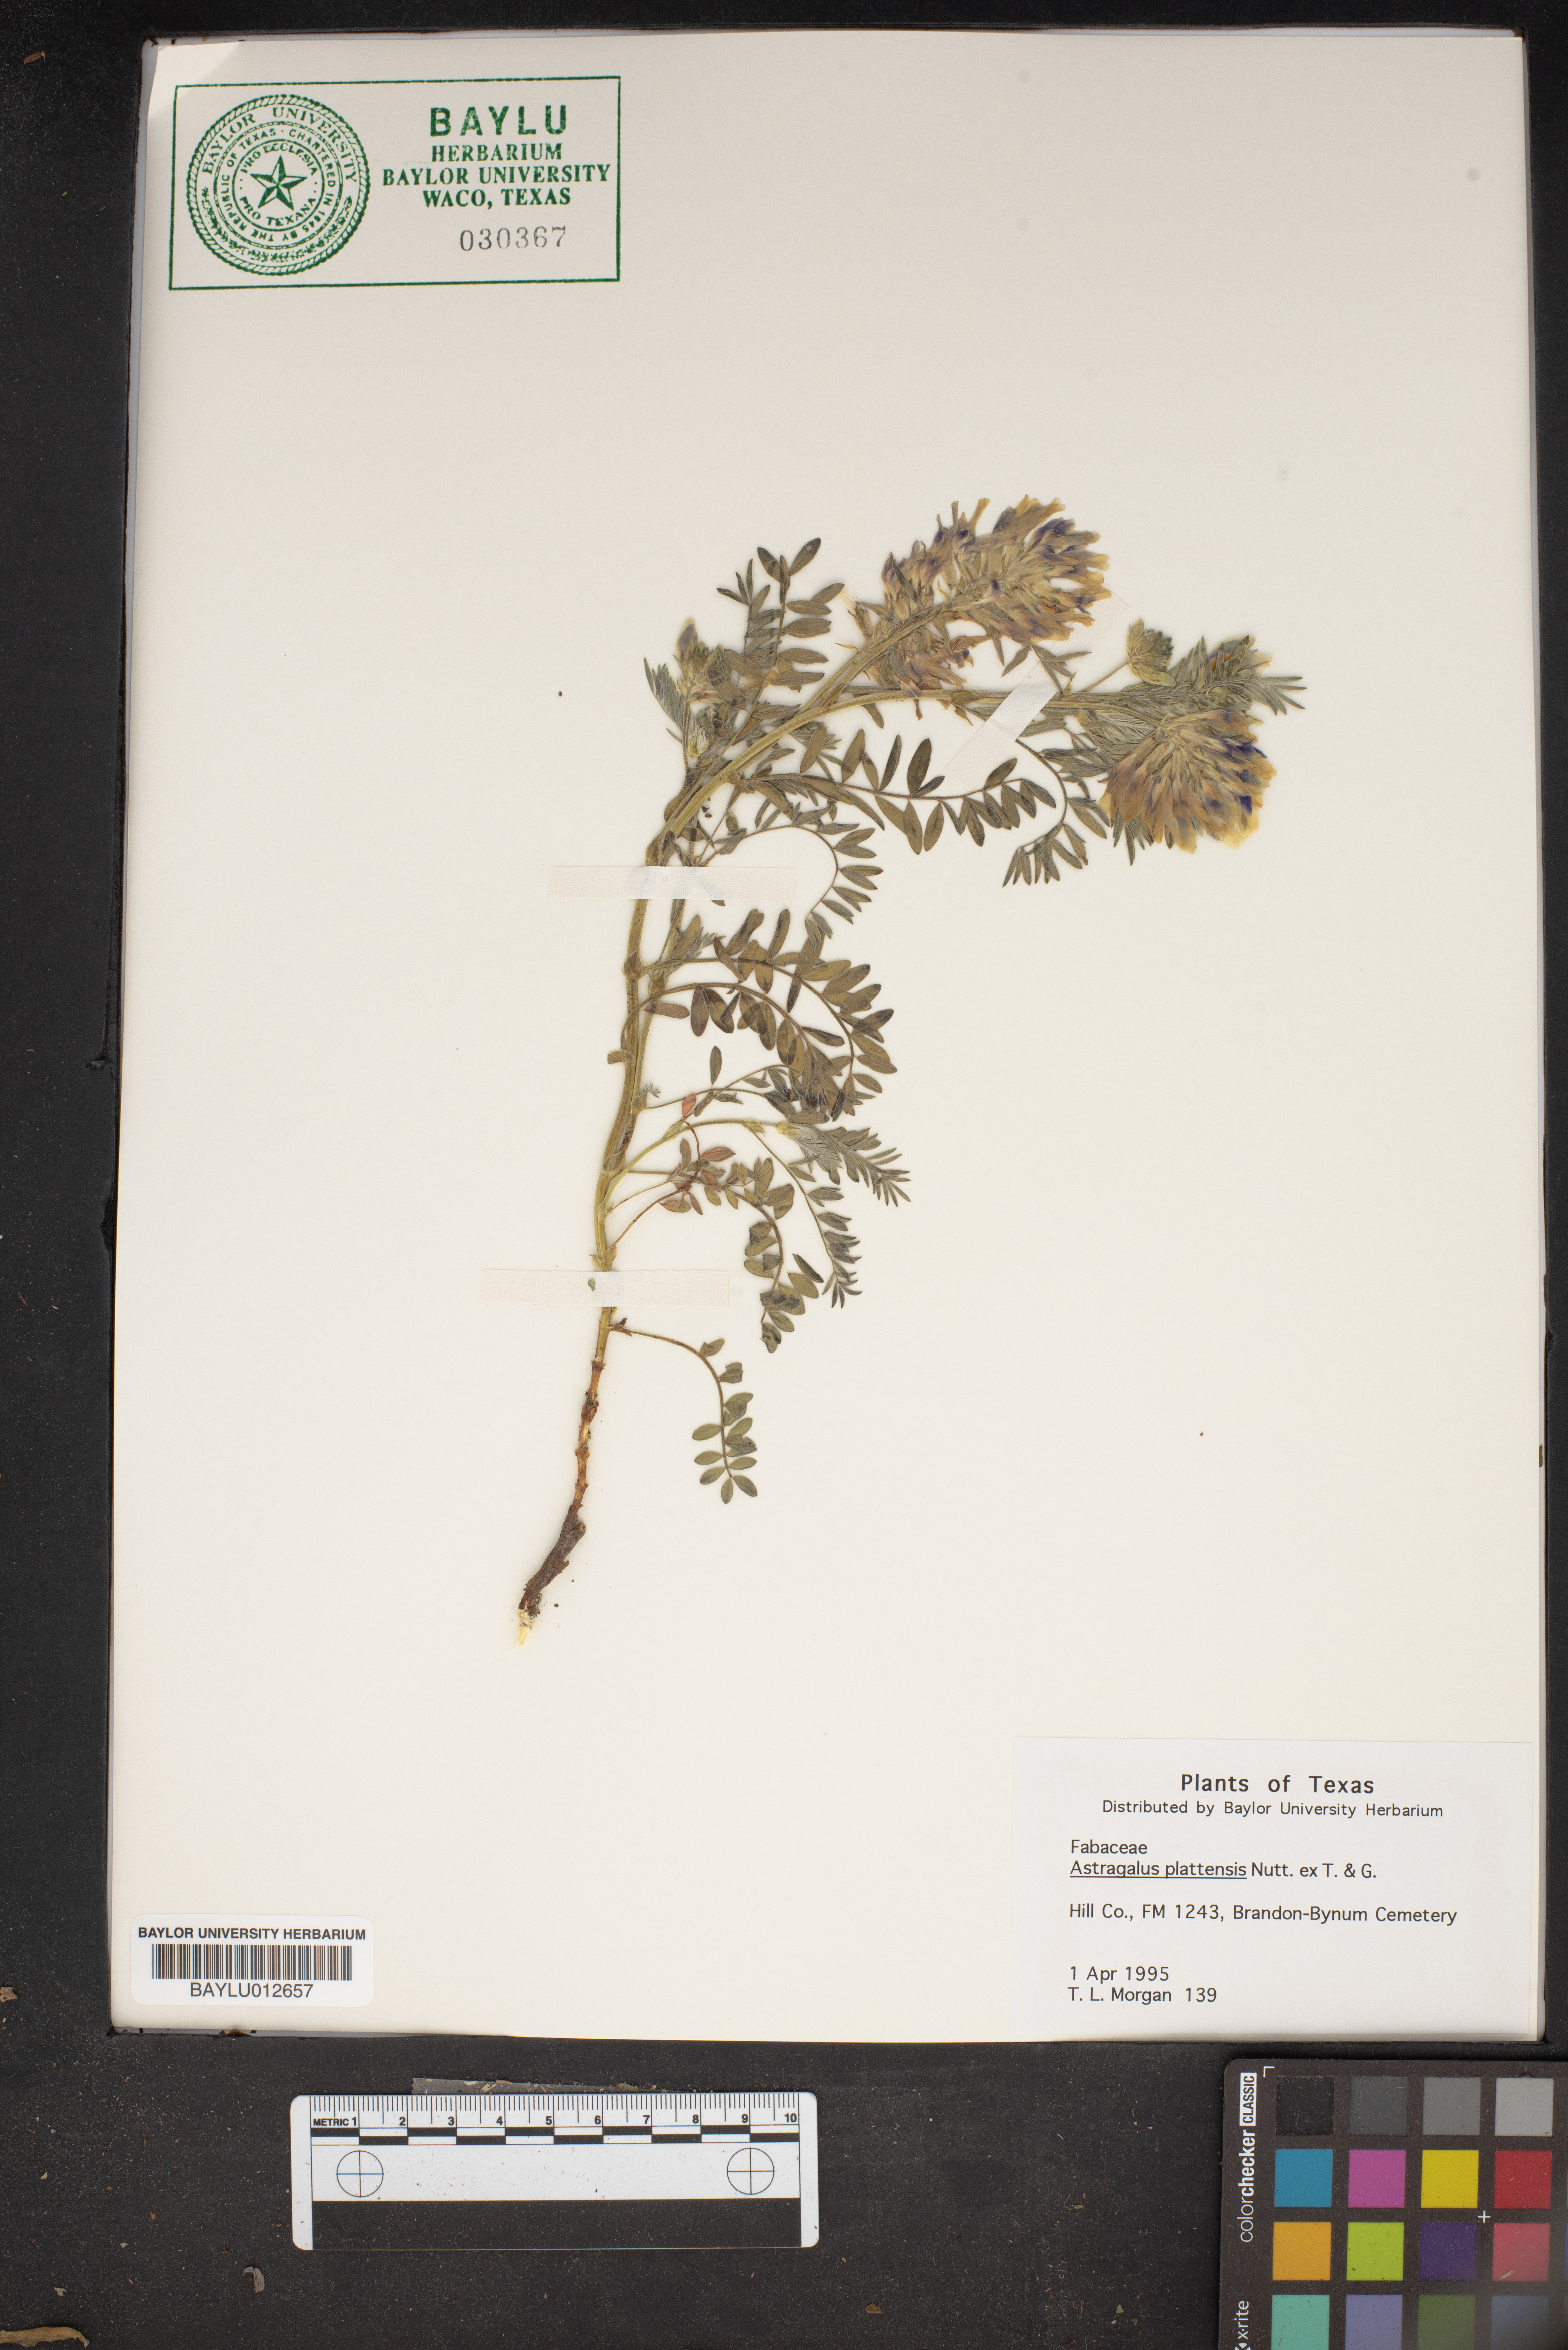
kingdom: Plantae
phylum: Tracheophyta
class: Magnoliopsida
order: Fabales
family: Fabaceae
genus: Astragalus
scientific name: Astragalus plattensis
